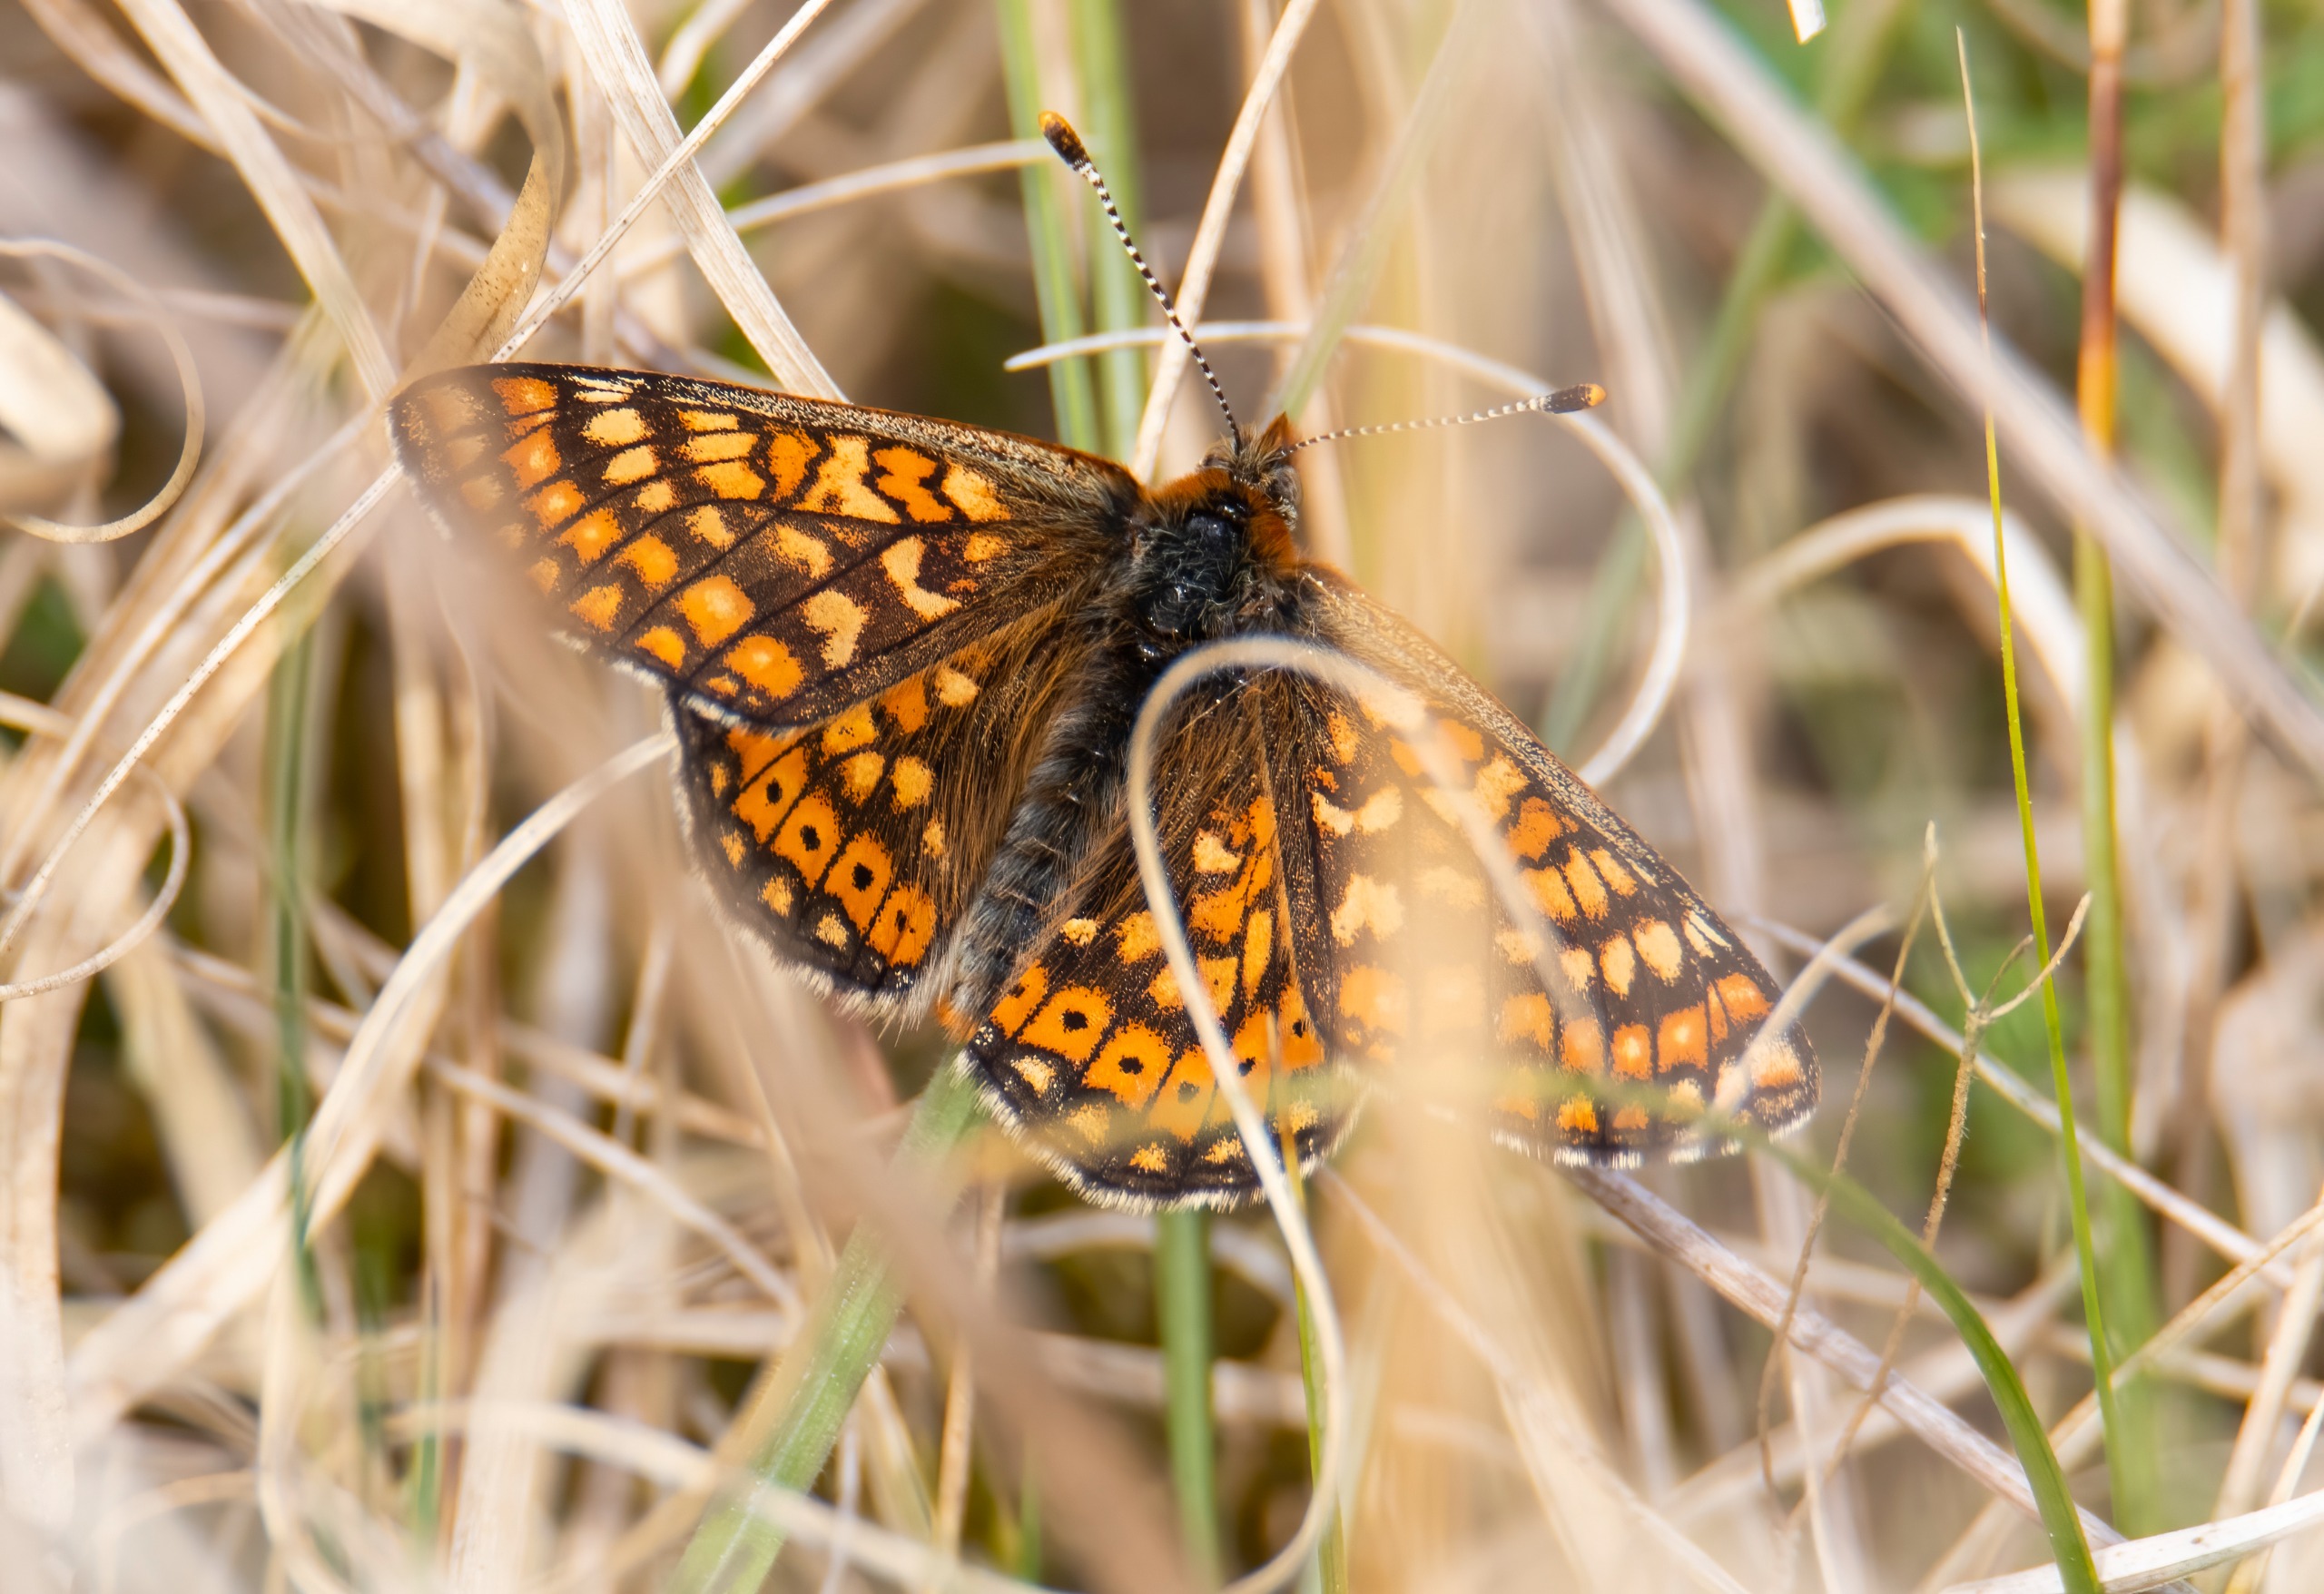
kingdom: Animalia
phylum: Arthropoda
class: Insecta
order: Lepidoptera
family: Nymphalidae
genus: Euphydryas
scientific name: Euphydryas aurinia
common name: Hedepletvinge
